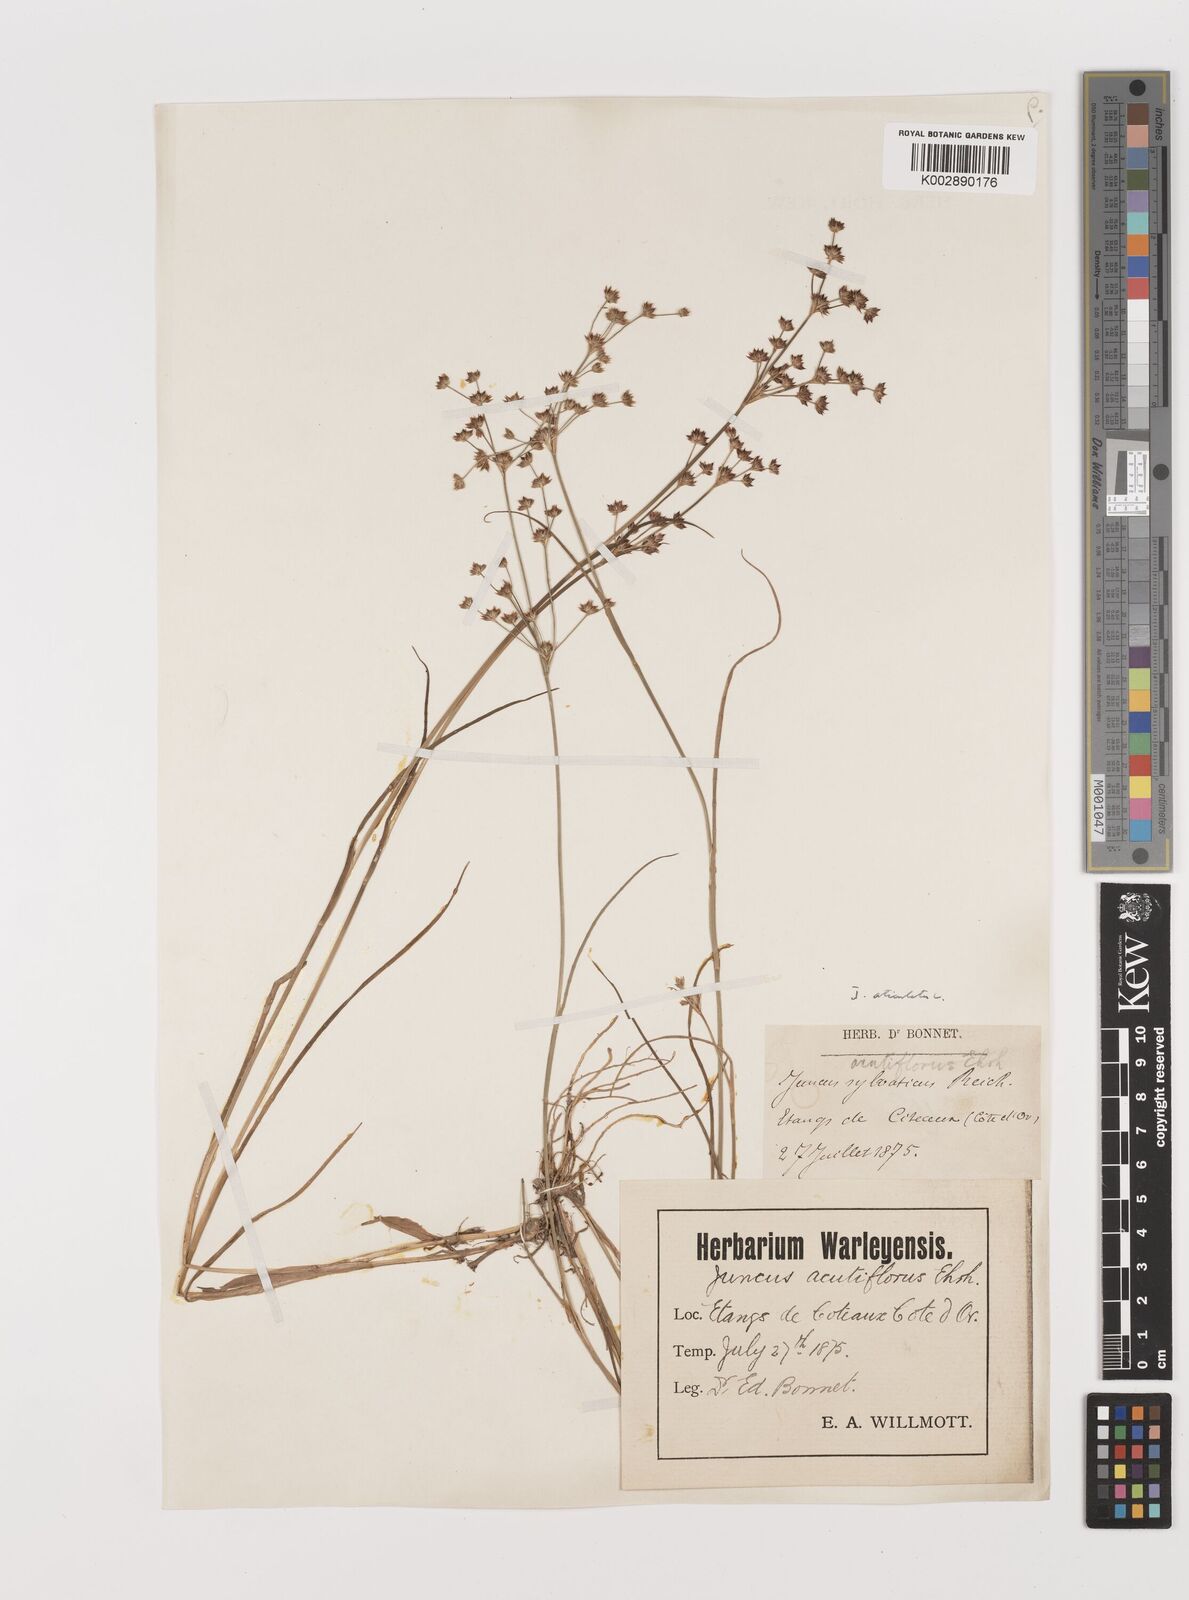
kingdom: Plantae
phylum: Tracheophyta
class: Liliopsida
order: Poales
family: Juncaceae
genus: Juncus
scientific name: Juncus articulatus
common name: Jointed rush
